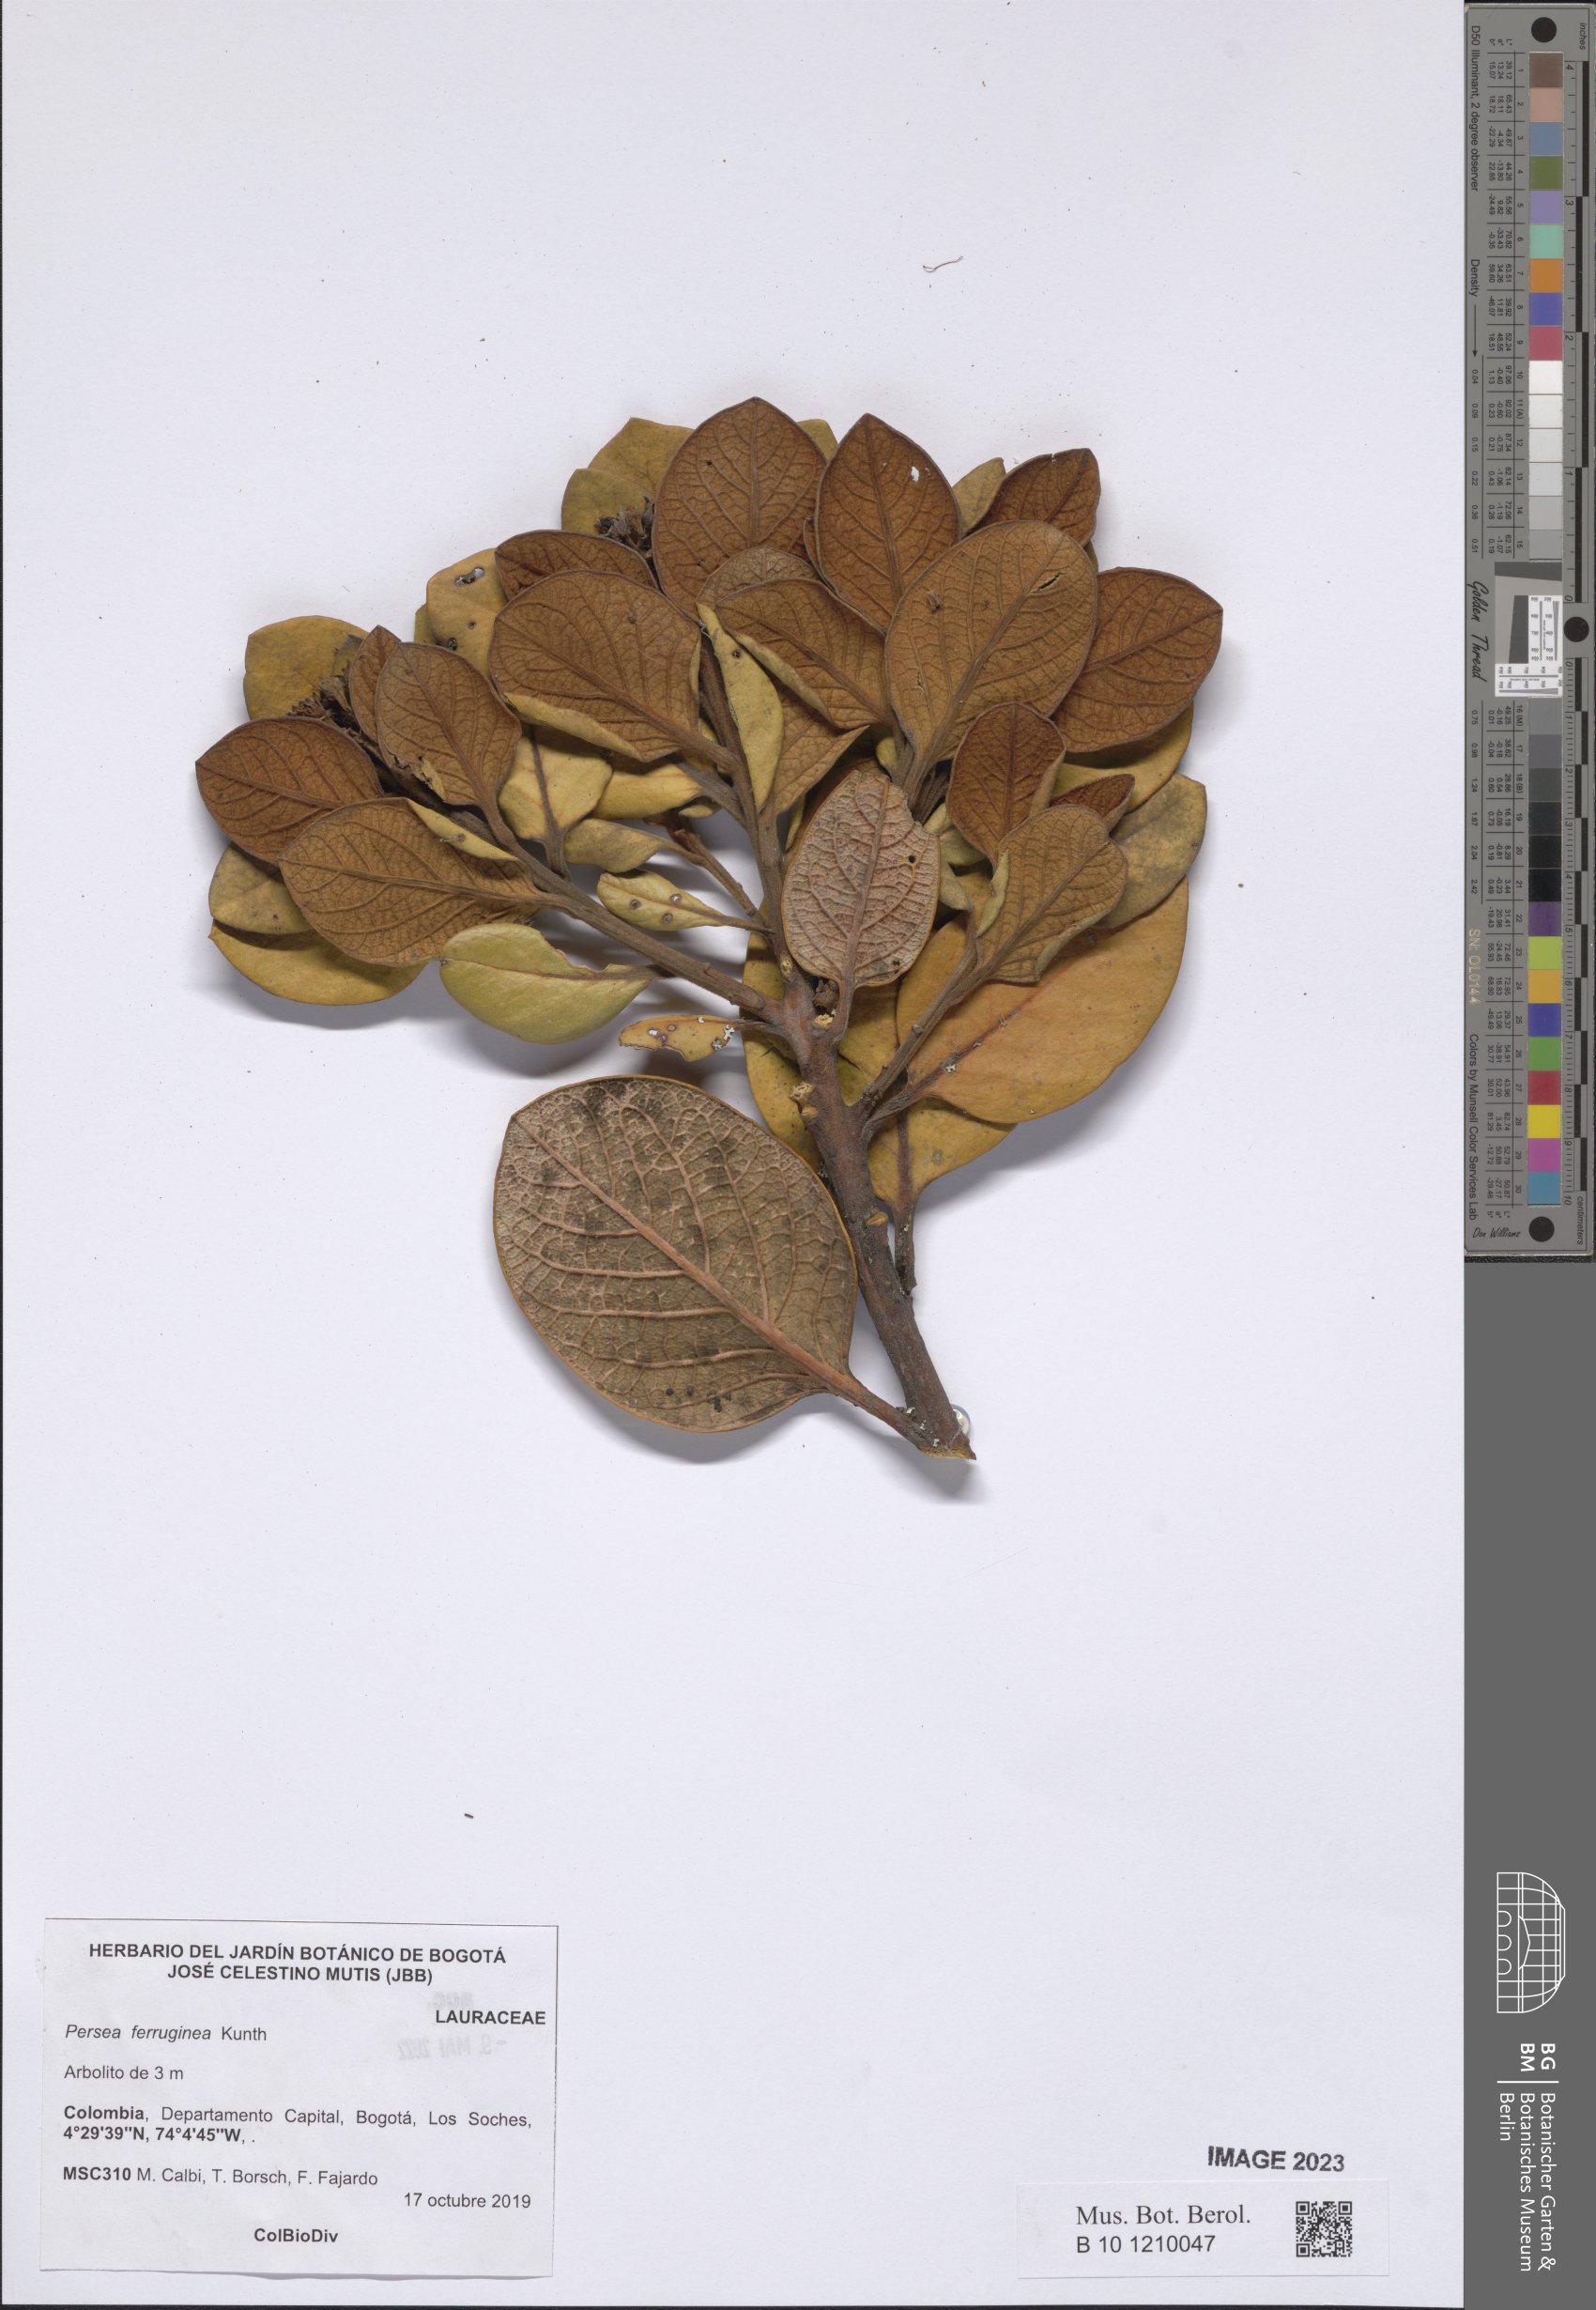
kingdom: Plantae
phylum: Tracheophyta
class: Magnoliopsida
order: Laurales
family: Lauraceae
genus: Persea
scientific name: Persea ferruginea
